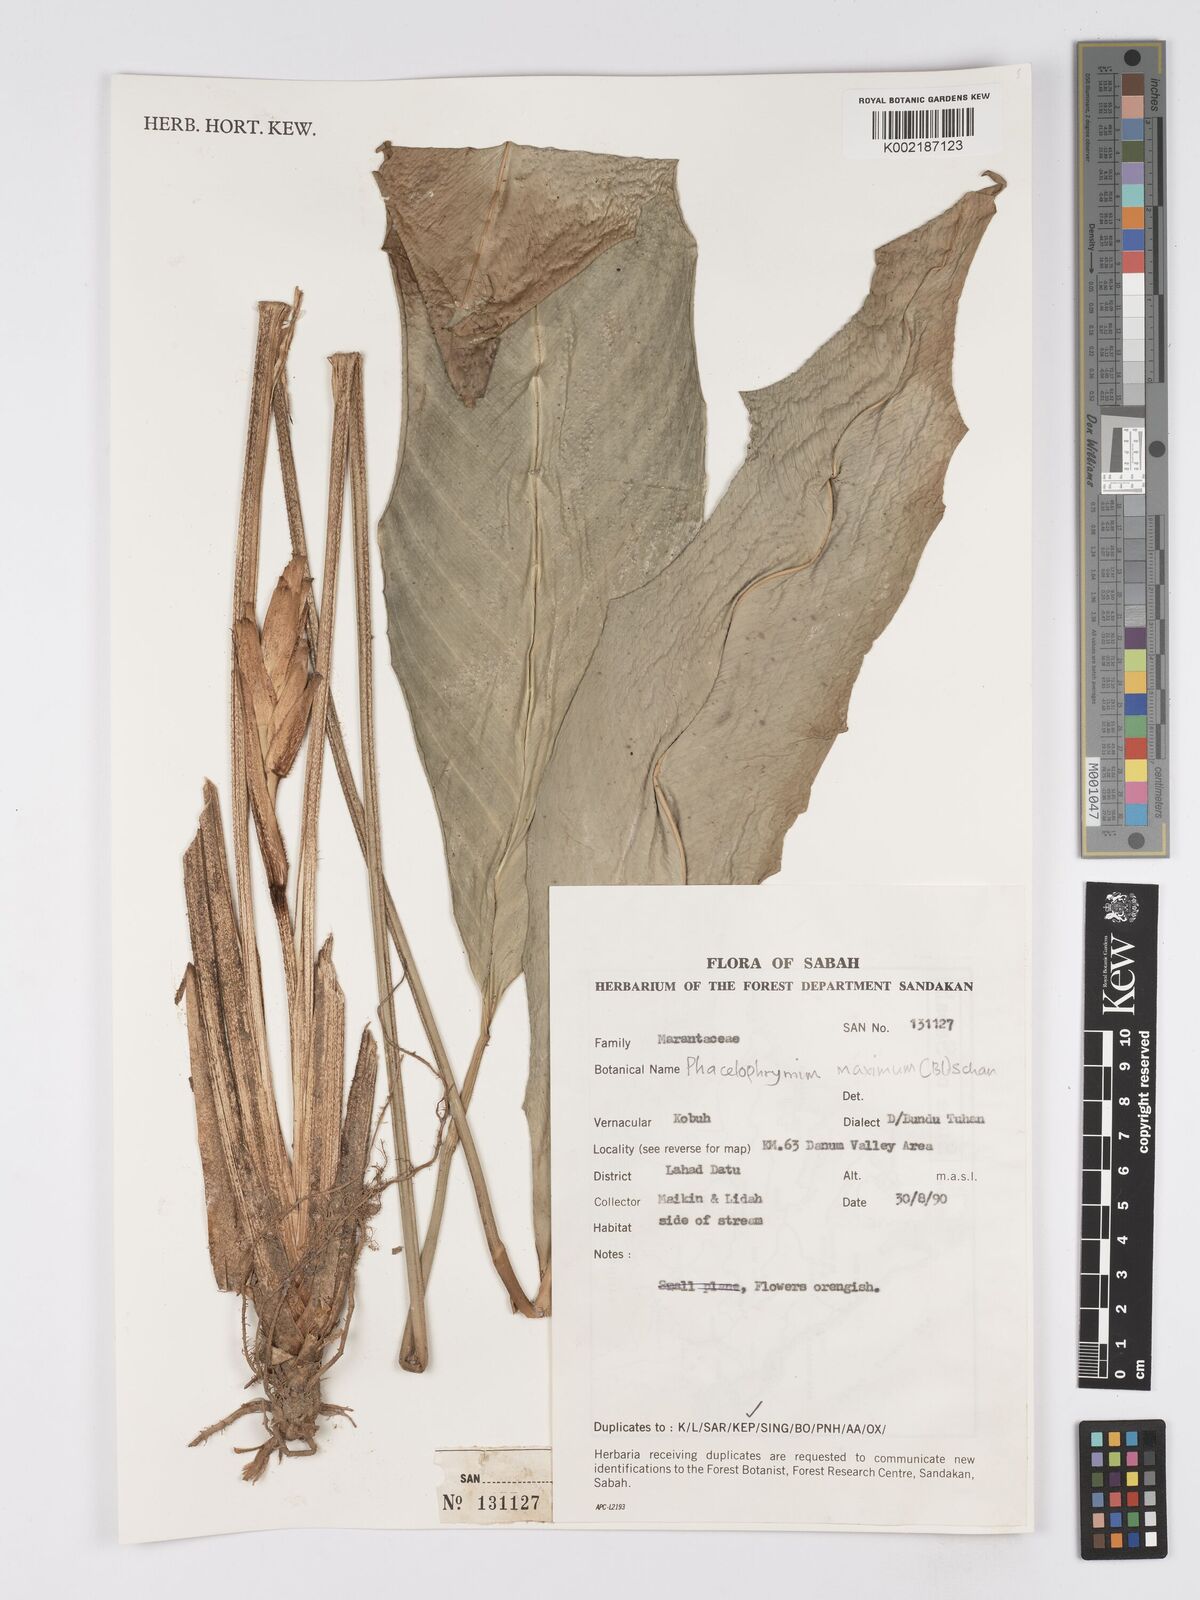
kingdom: Plantae
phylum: Tracheophyta
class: Liliopsida
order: Zingiberales
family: Marantaceae
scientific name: Marantaceae
